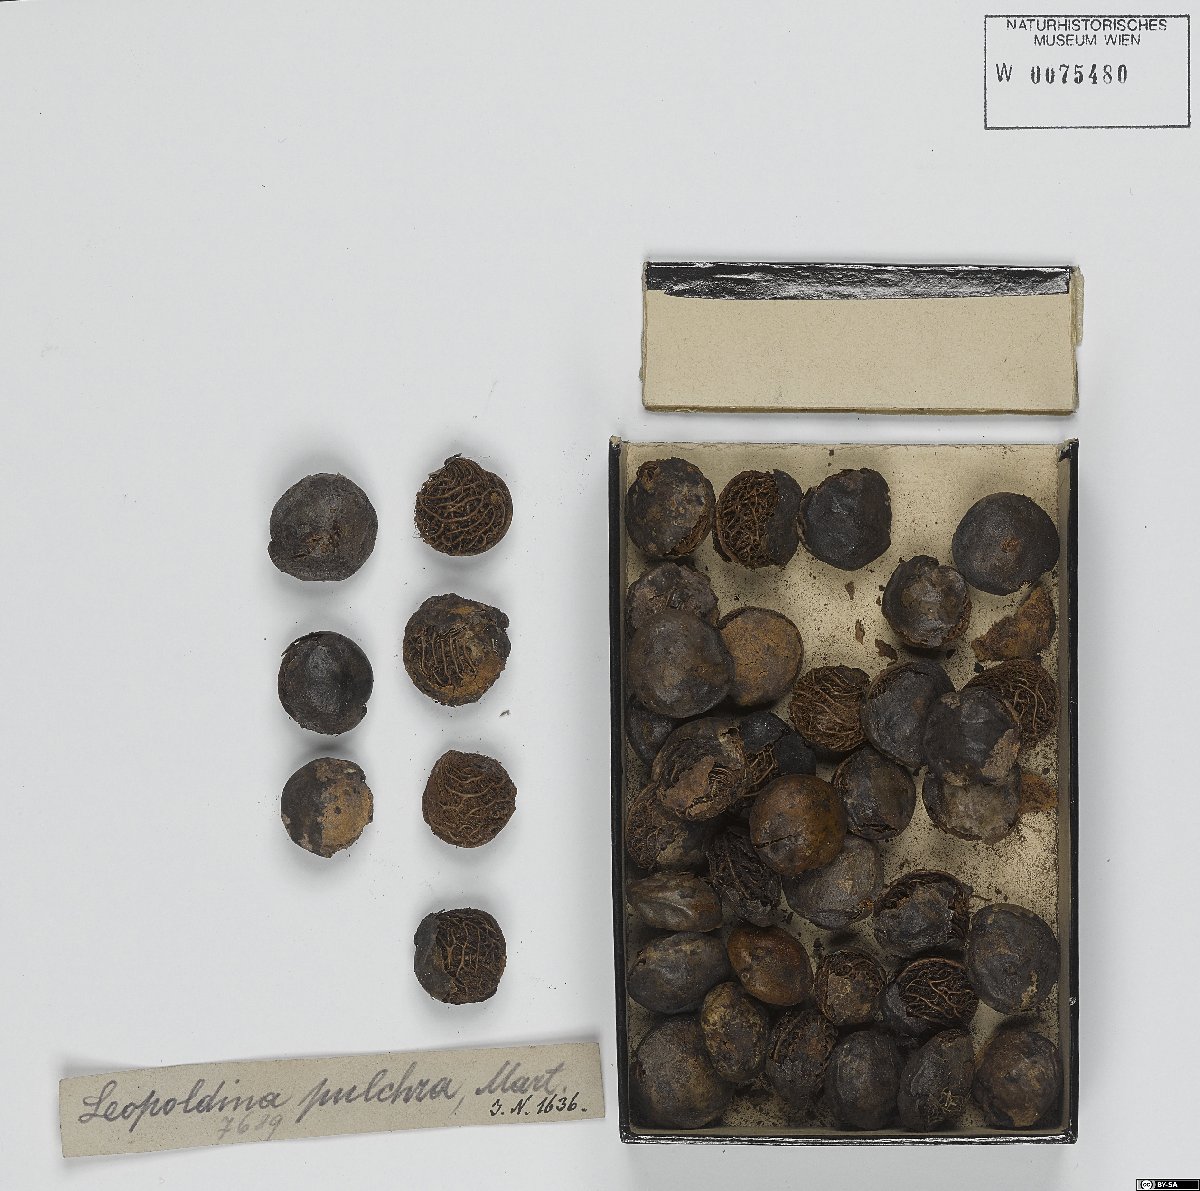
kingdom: Plantae
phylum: Tracheophyta
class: Liliopsida
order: Arecales
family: Arecaceae
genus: Leopoldinia
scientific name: Leopoldinia pulchra
